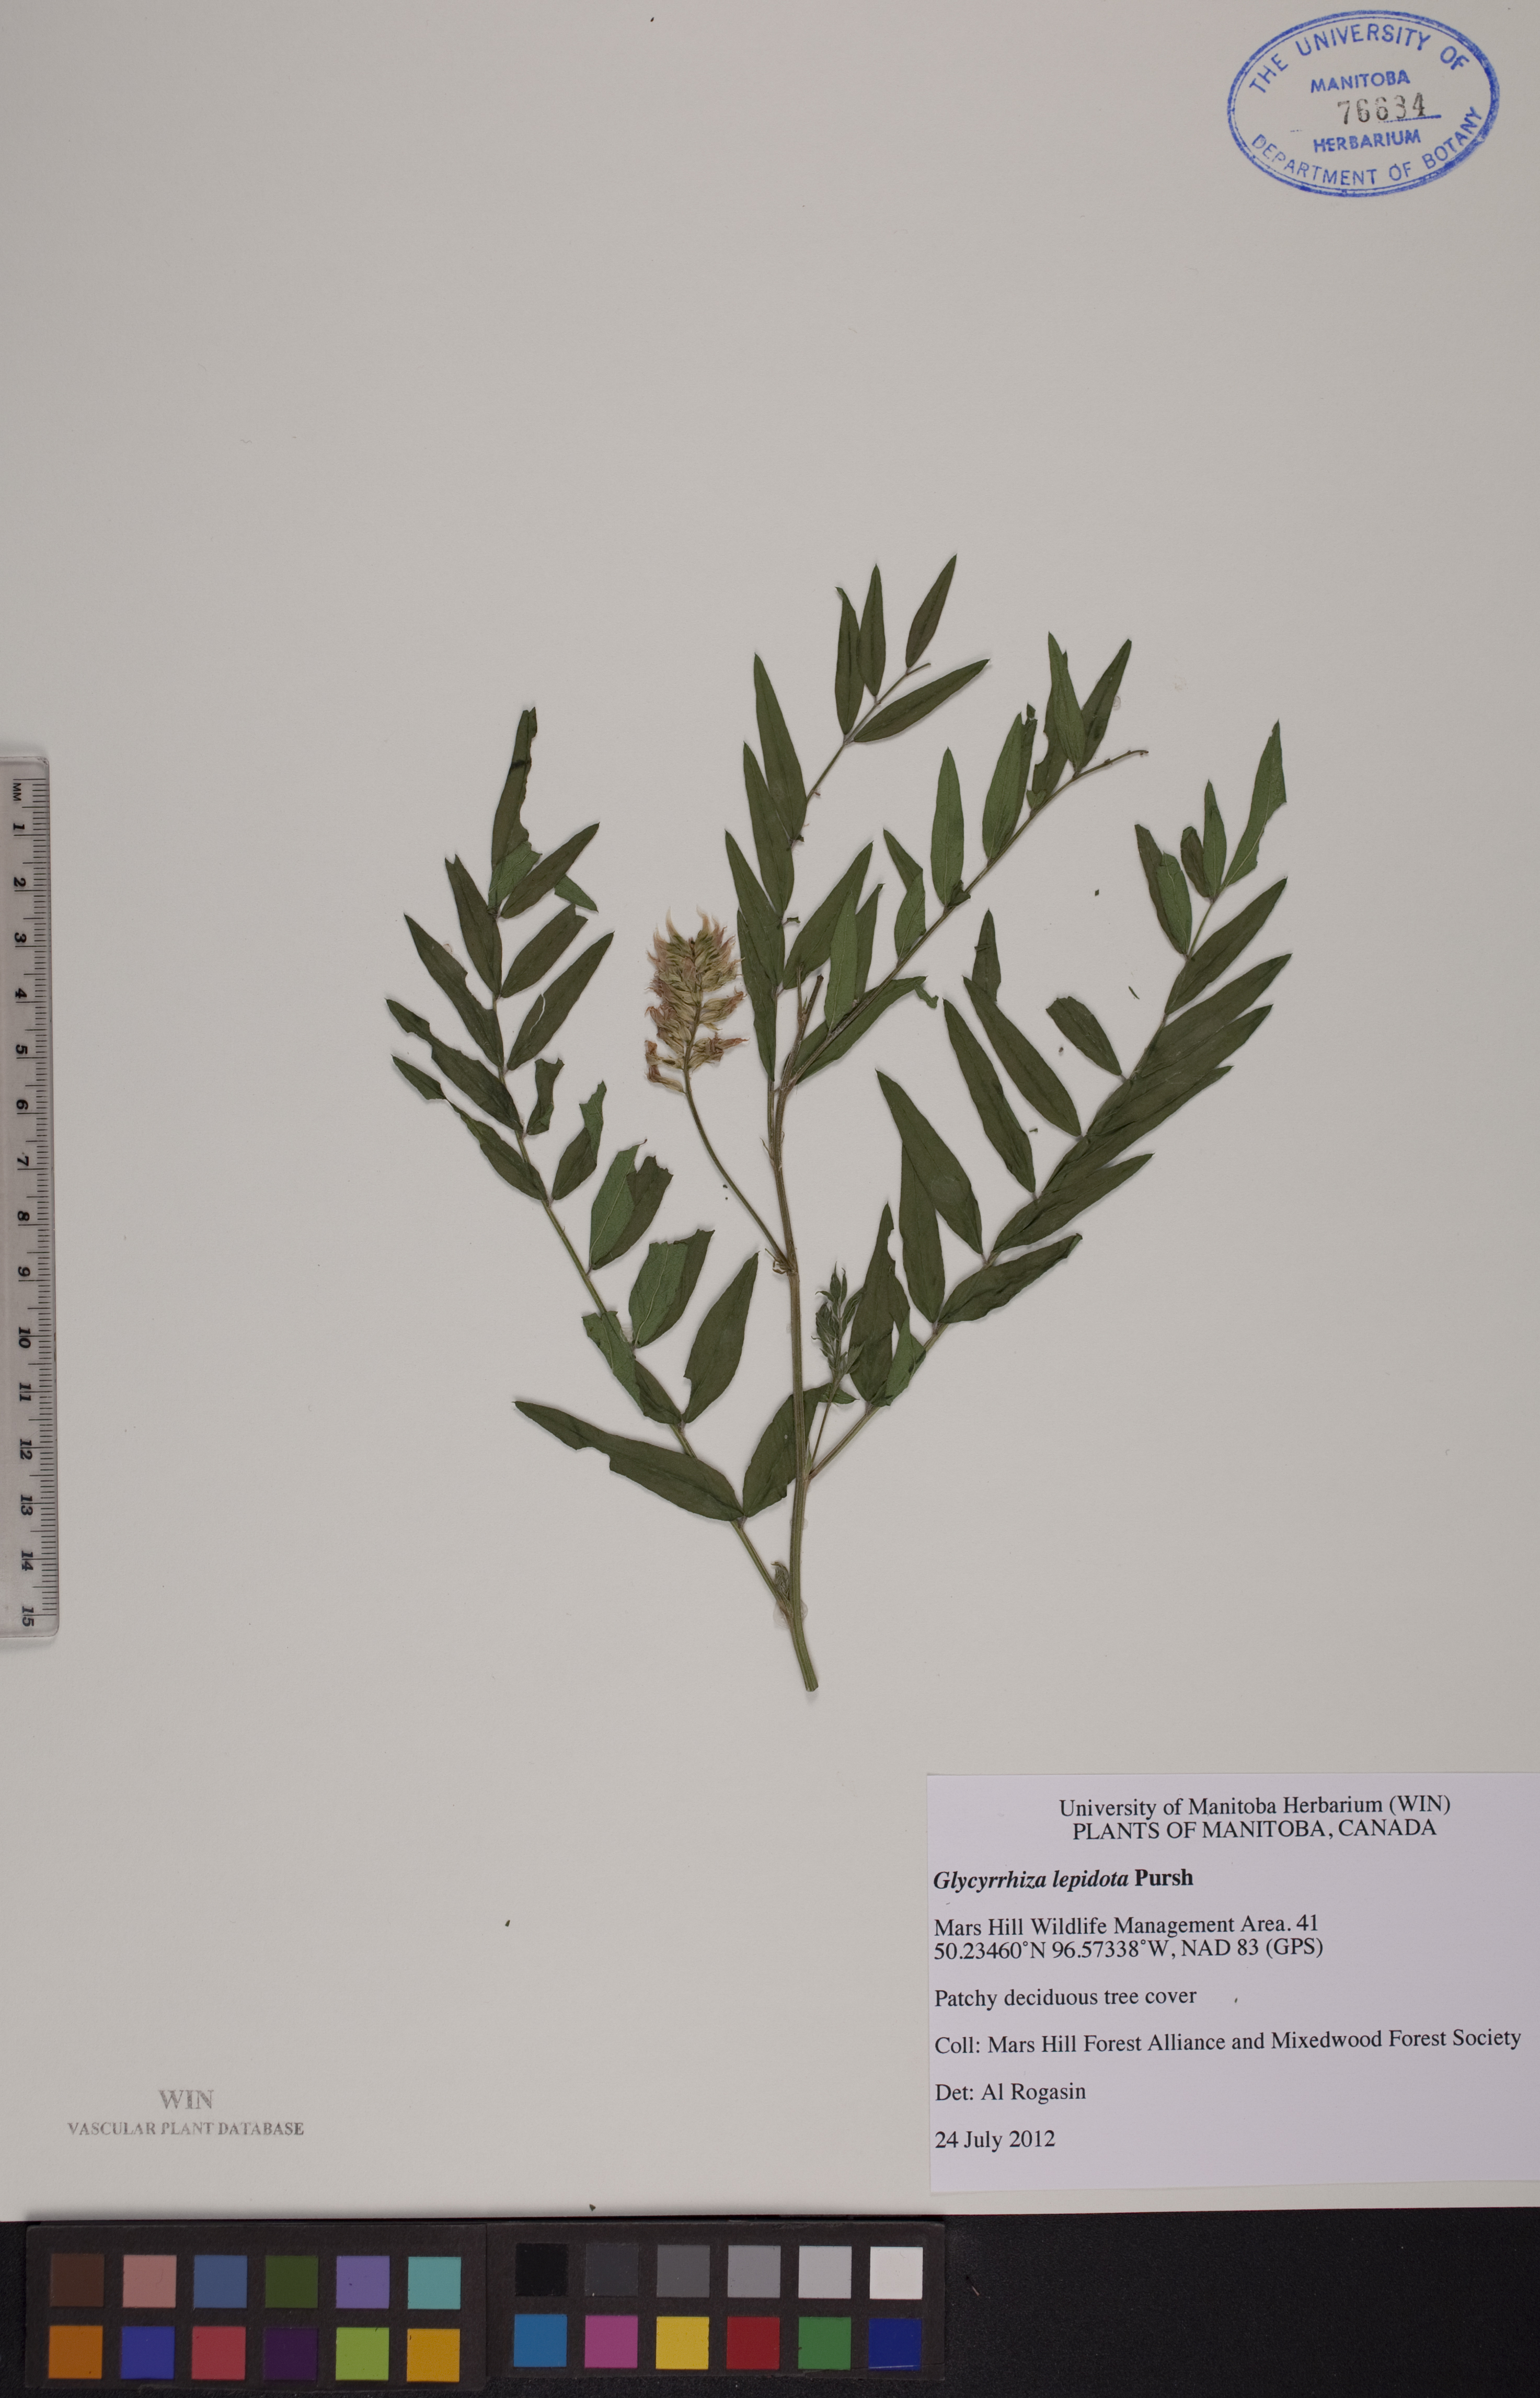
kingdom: Plantae
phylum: Tracheophyta
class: Magnoliopsida
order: Fabales
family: Fabaceae
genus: Glycyrrhiza
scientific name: Glycyrrhiza lepidota
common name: American liquorice
